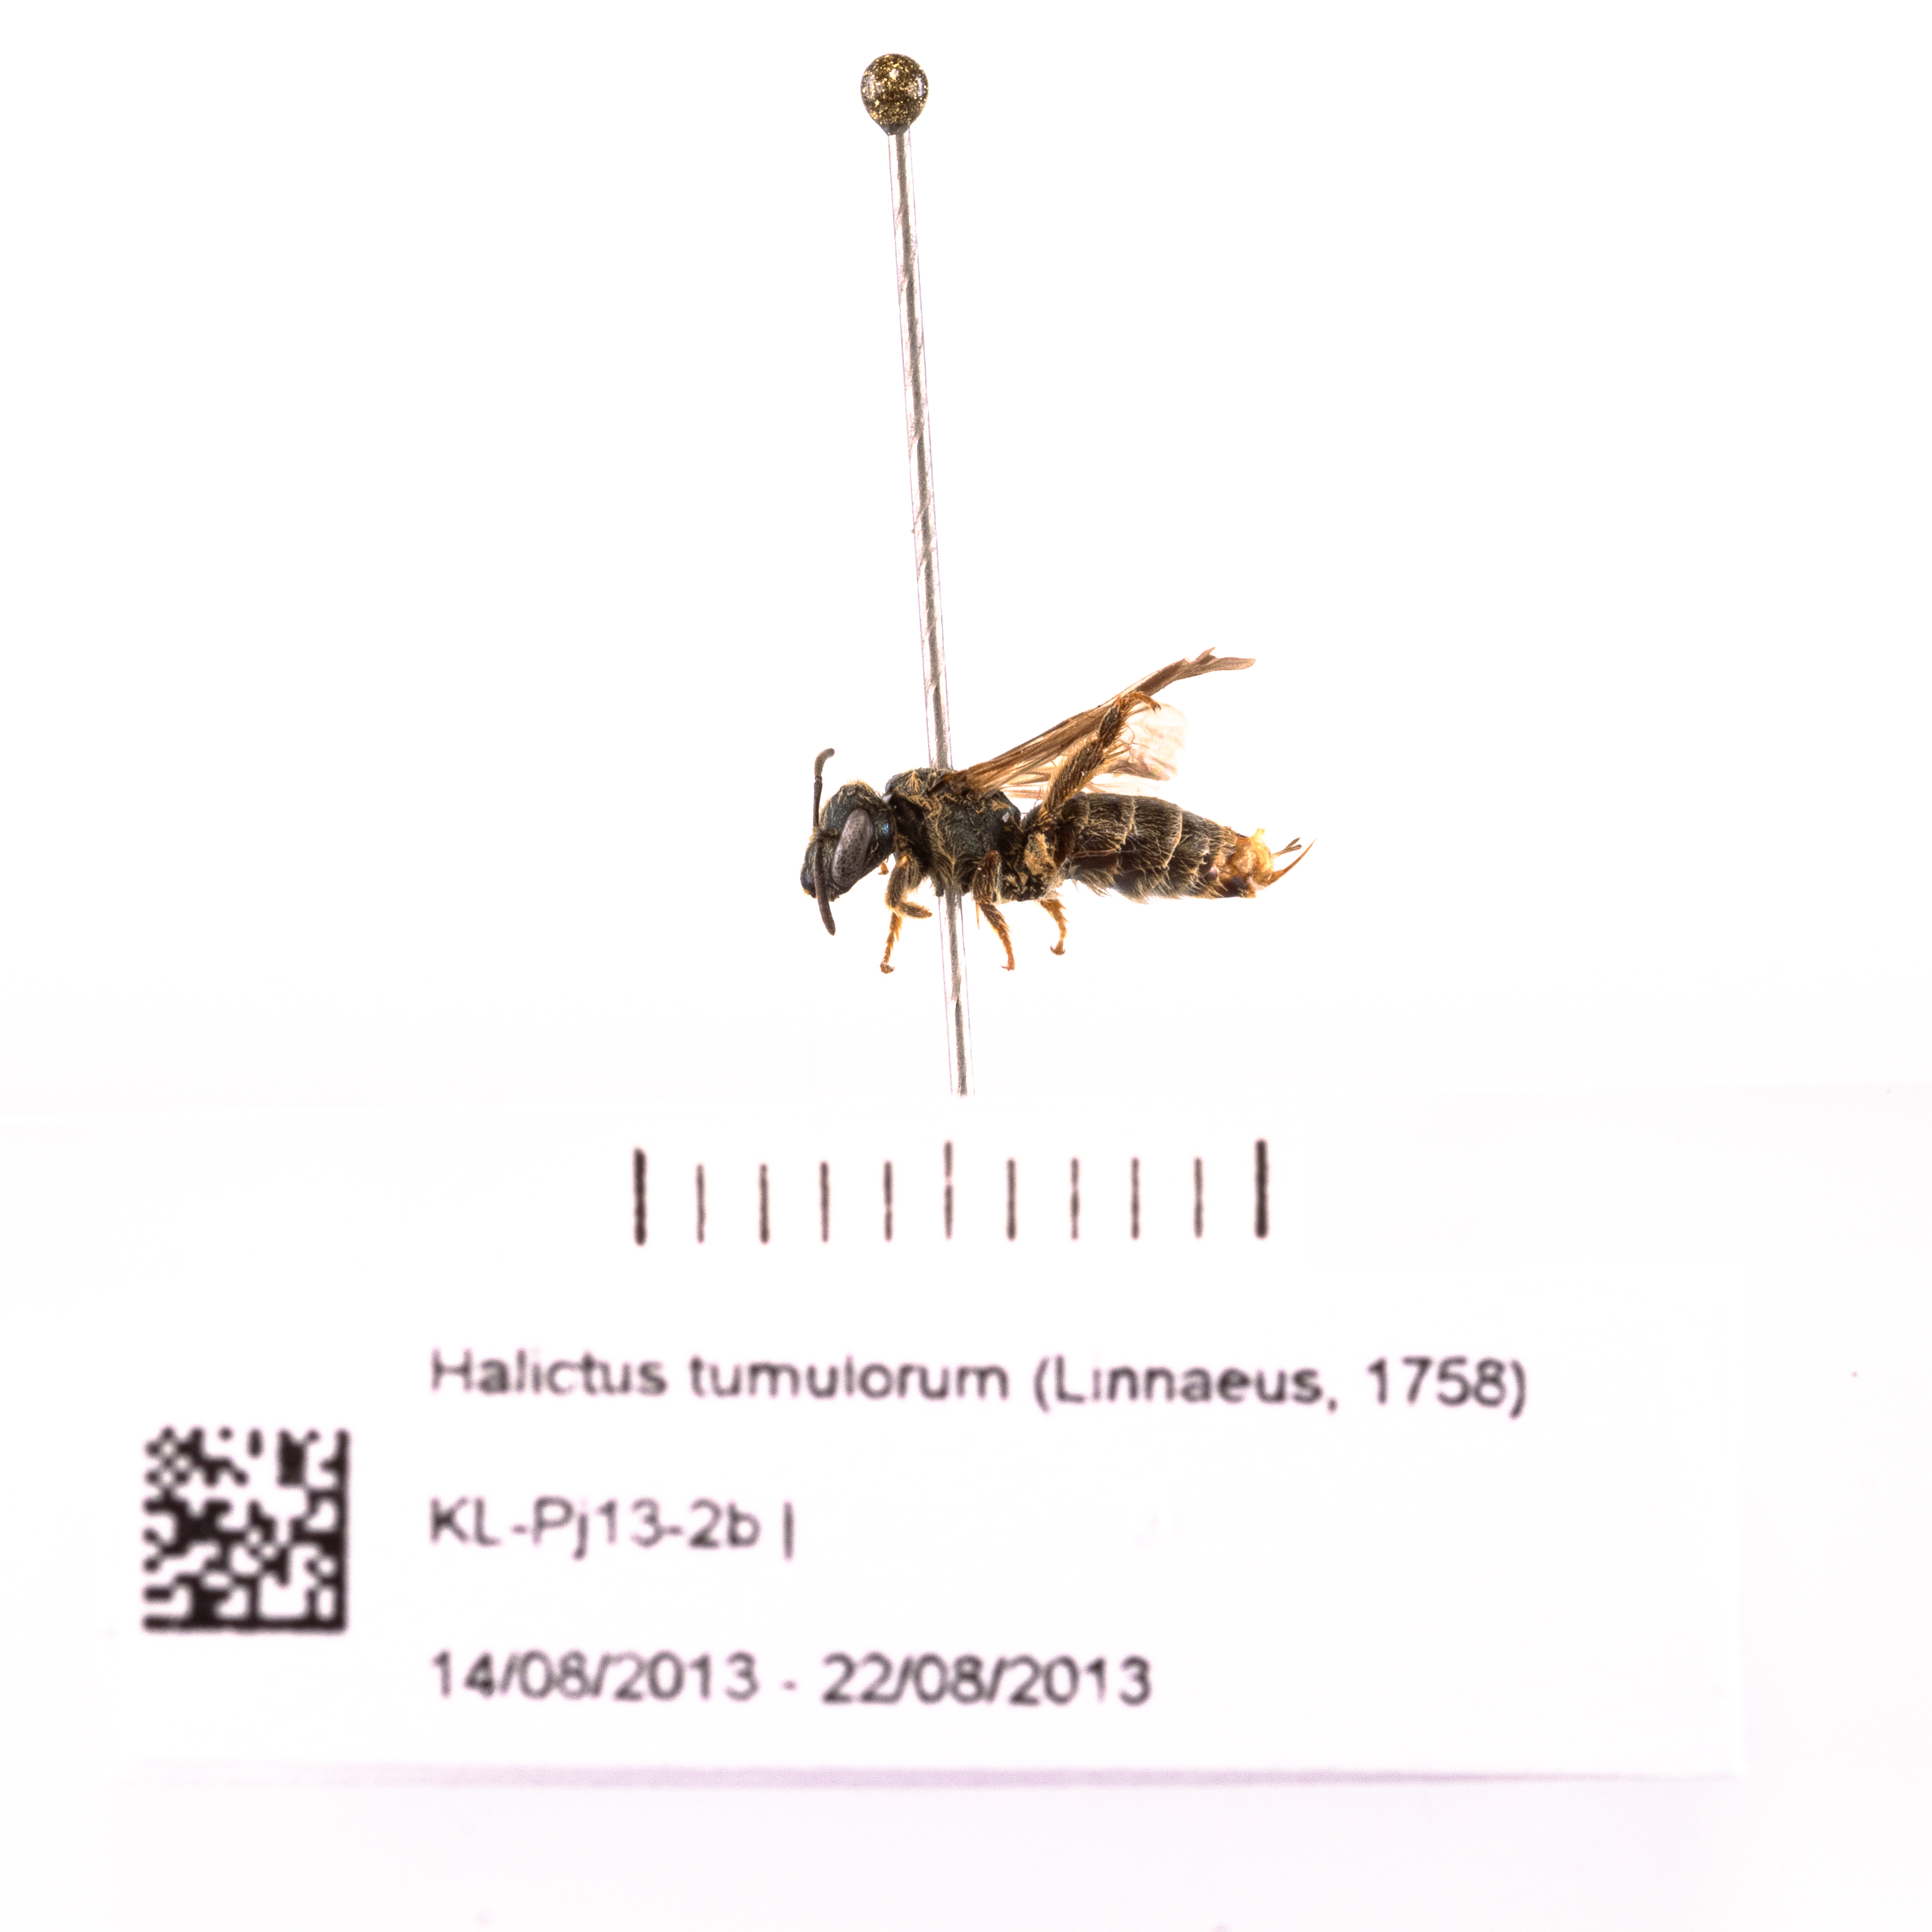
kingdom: Animalia
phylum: Arthropoda
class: Insecta
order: Hymenoptera
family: Halictidae
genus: Halictus
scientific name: Halictus tumulorum
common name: Bronze furrow bee
